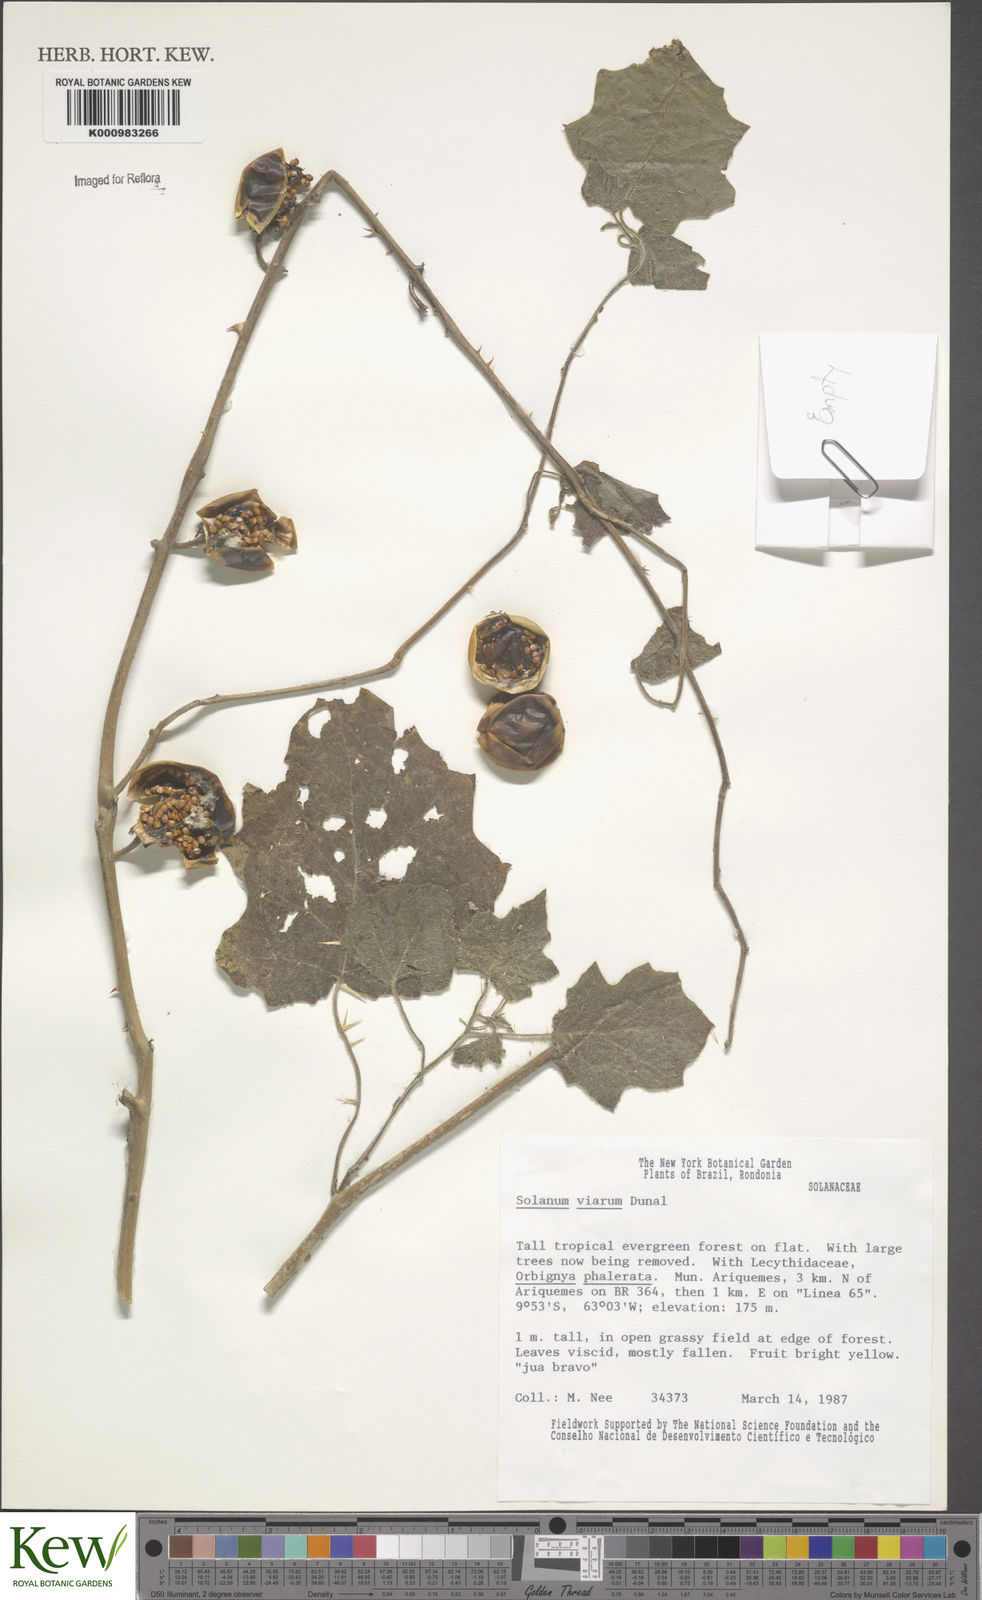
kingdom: Plantae
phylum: Tracheophyta
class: Magnoliopsida
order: Solanales
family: Solanaceae
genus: Solanum
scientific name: Solanum viarum
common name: Tropical soda apple
